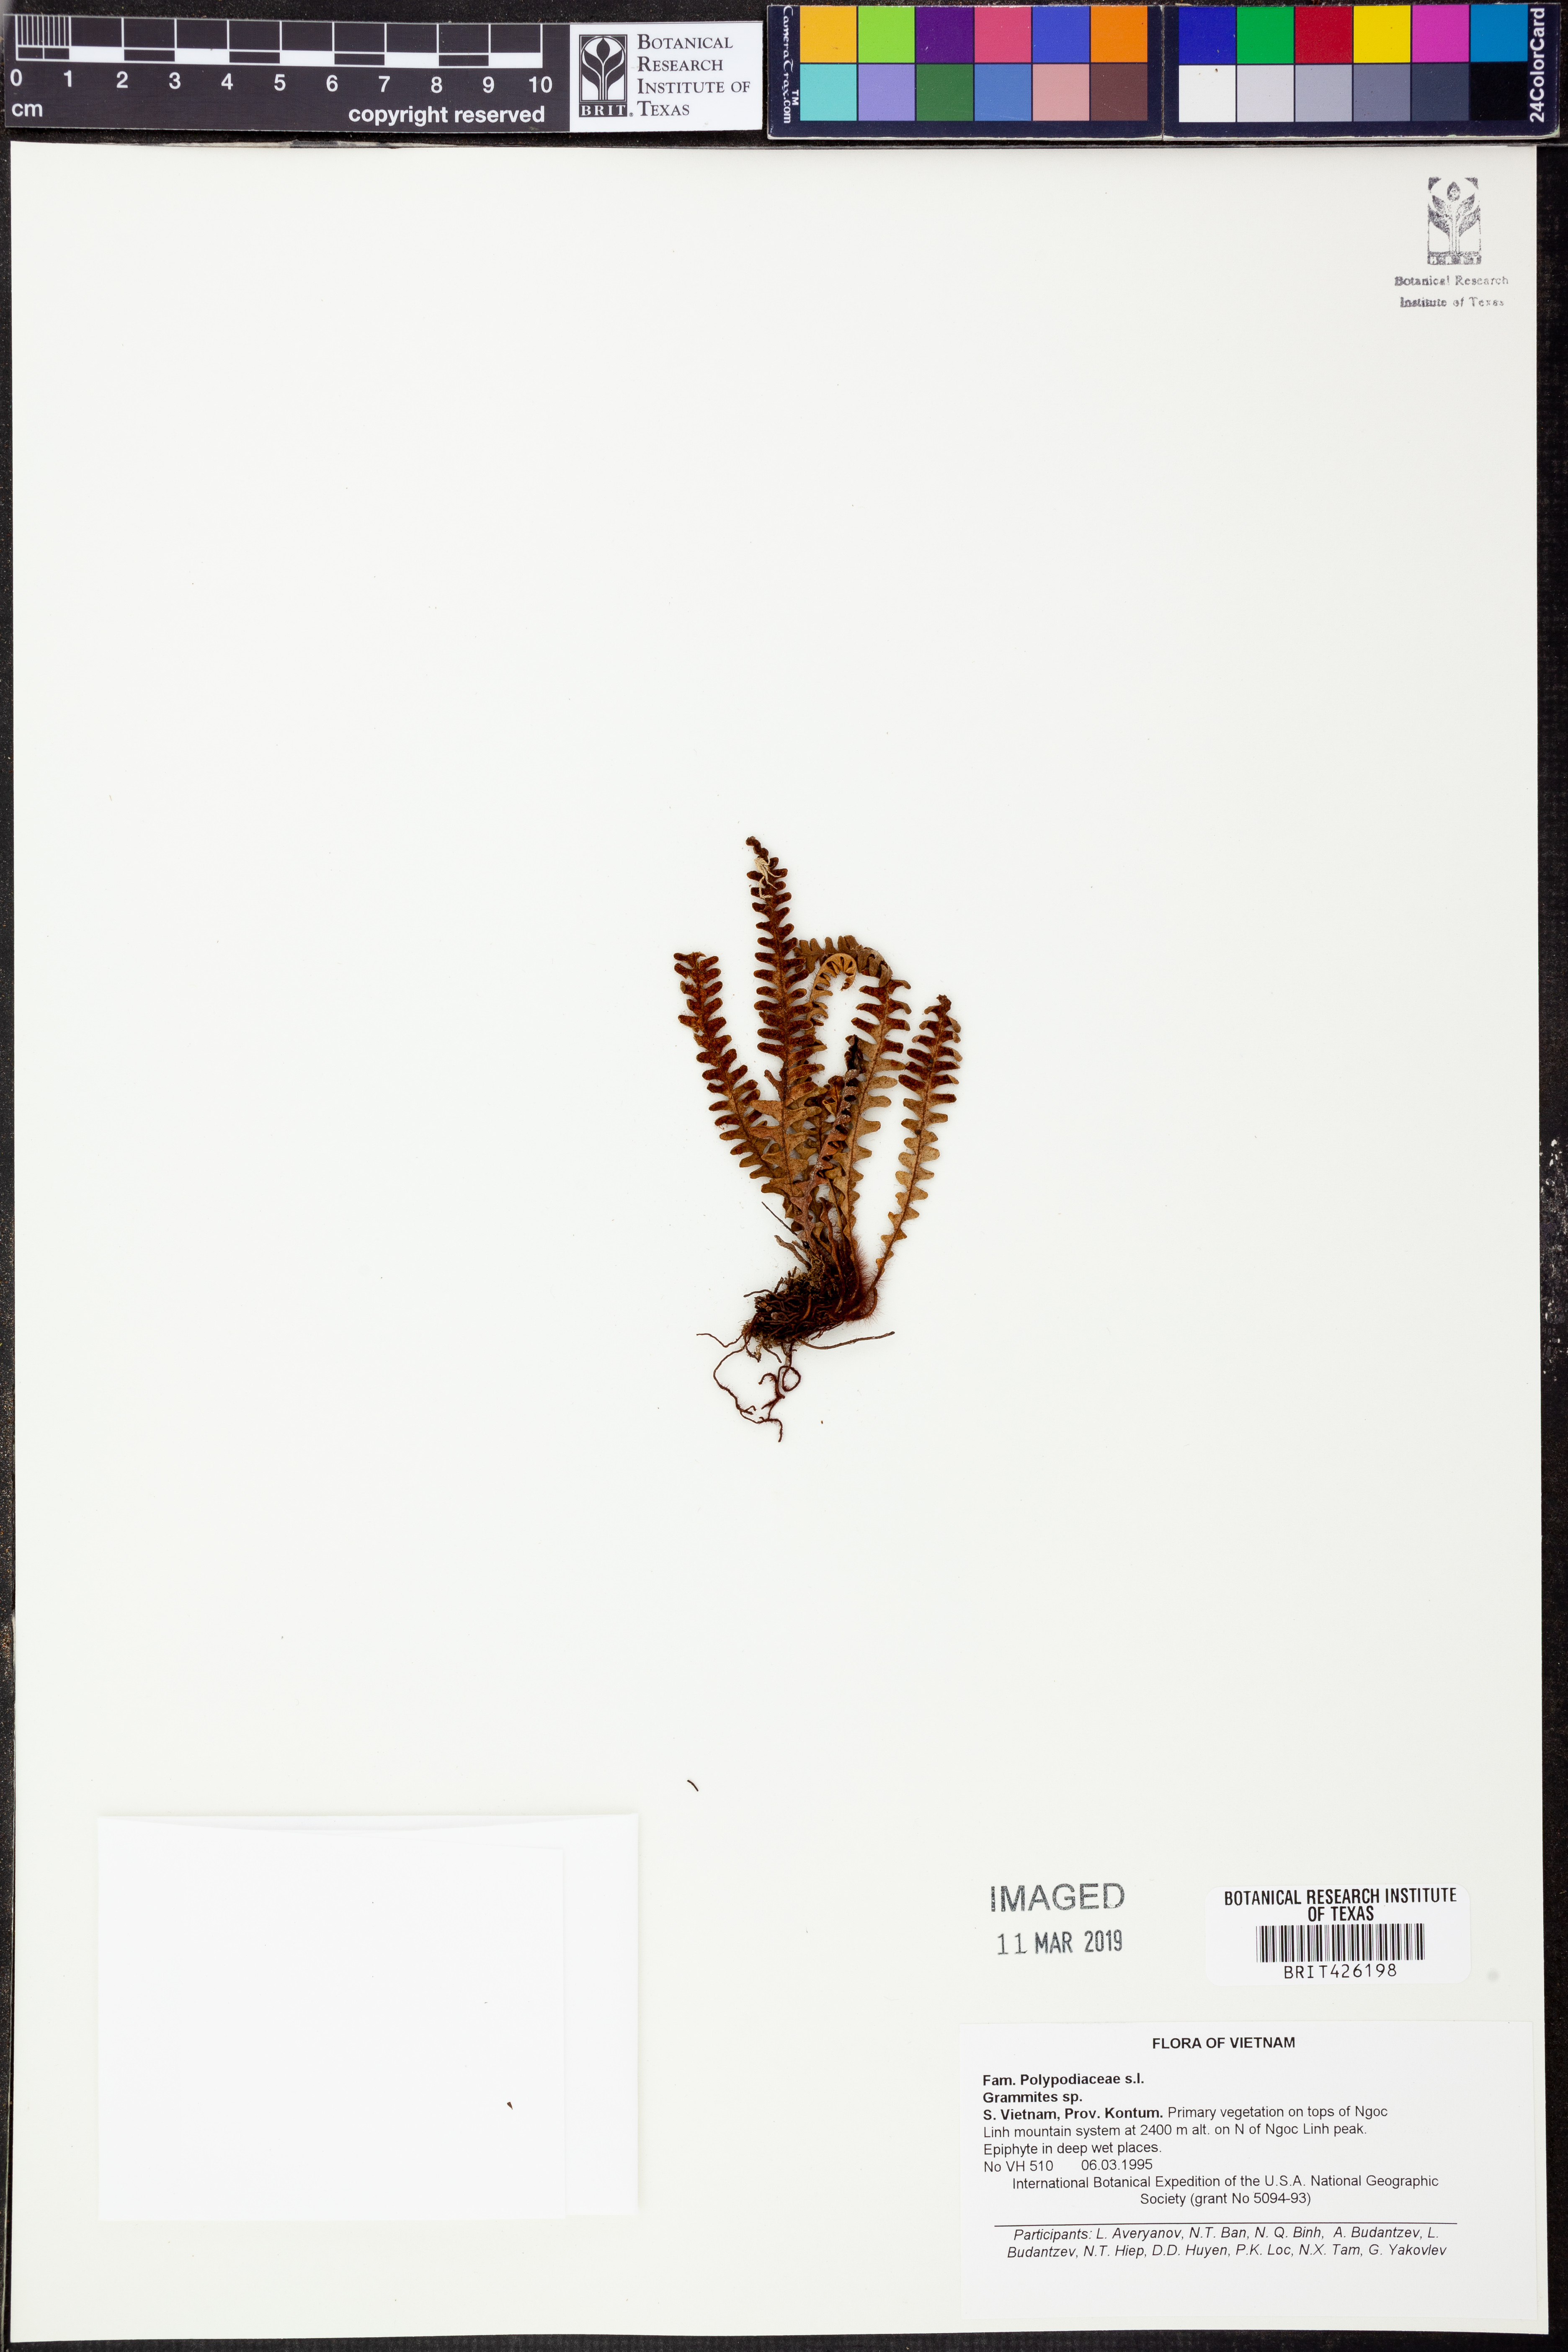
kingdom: Plantae
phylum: Tracheophyta
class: Polypodiopsida
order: Polypodiales
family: Polypodiaceae
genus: Grammitis
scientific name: Grammitis
